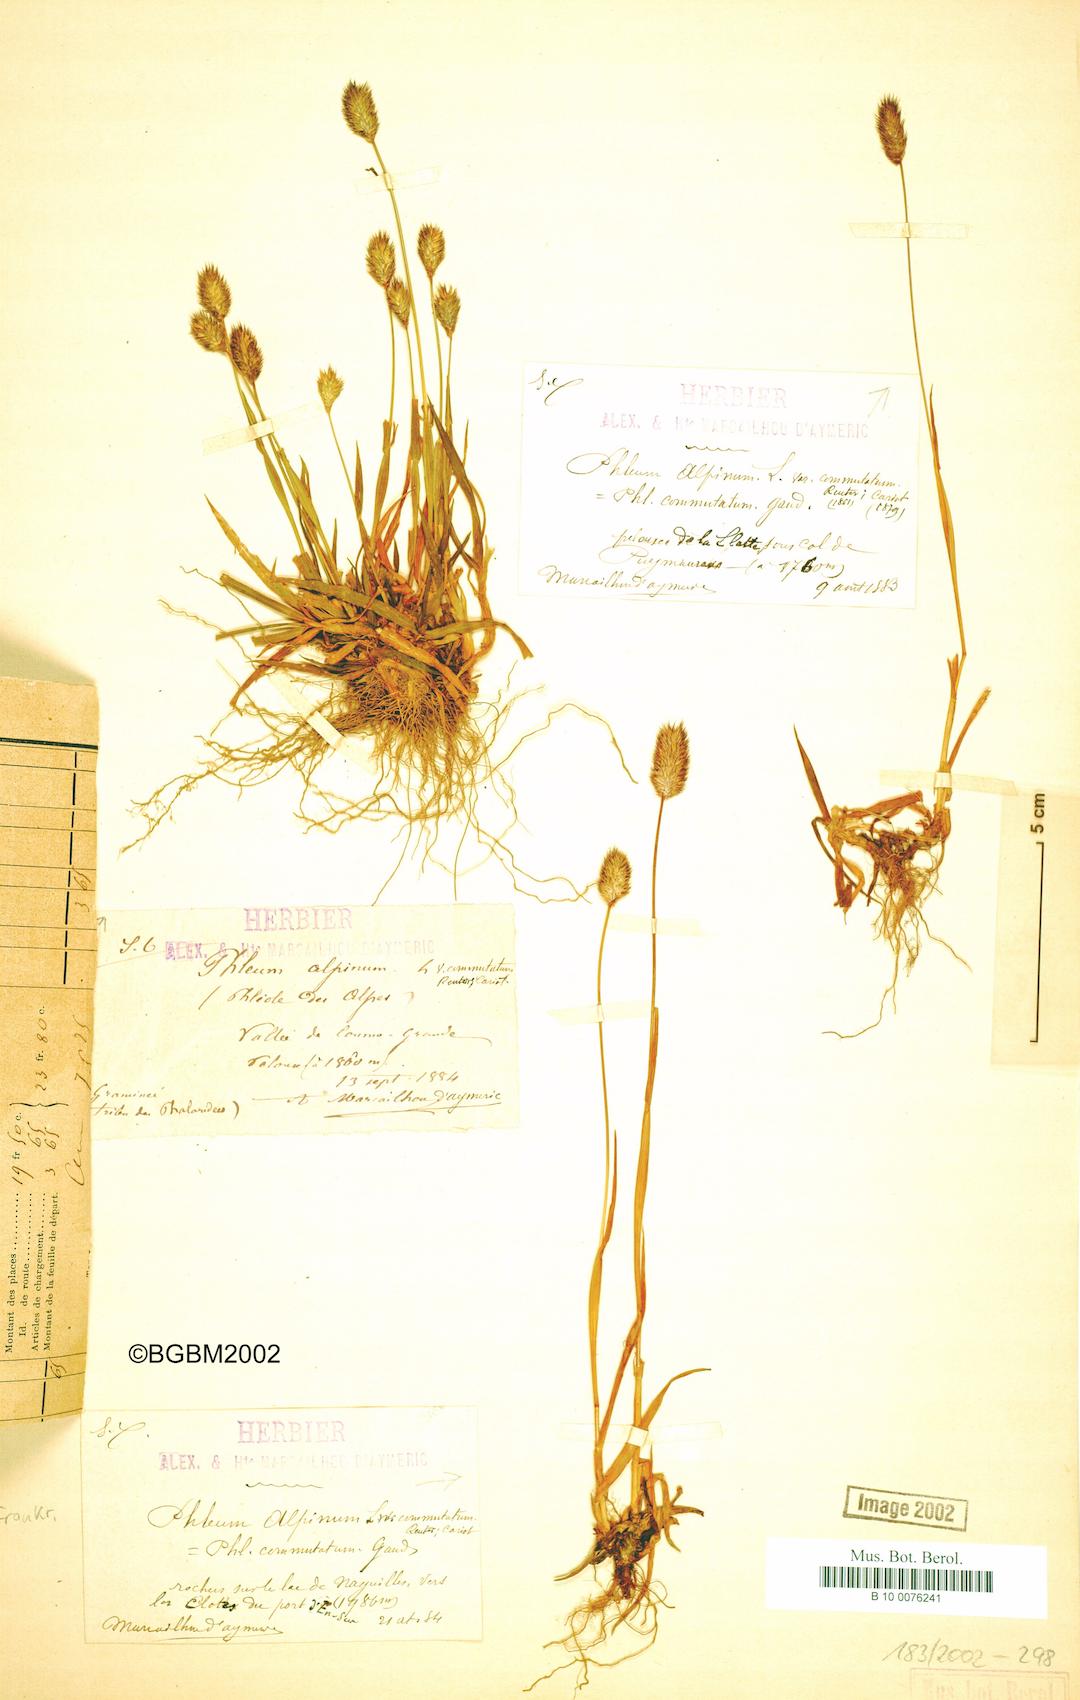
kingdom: Plantae
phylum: Tracheophyta
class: Liliopsida
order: Poales
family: Poaceae
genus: Phleum
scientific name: Phleum alpinum
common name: Alpine cat's-tail
